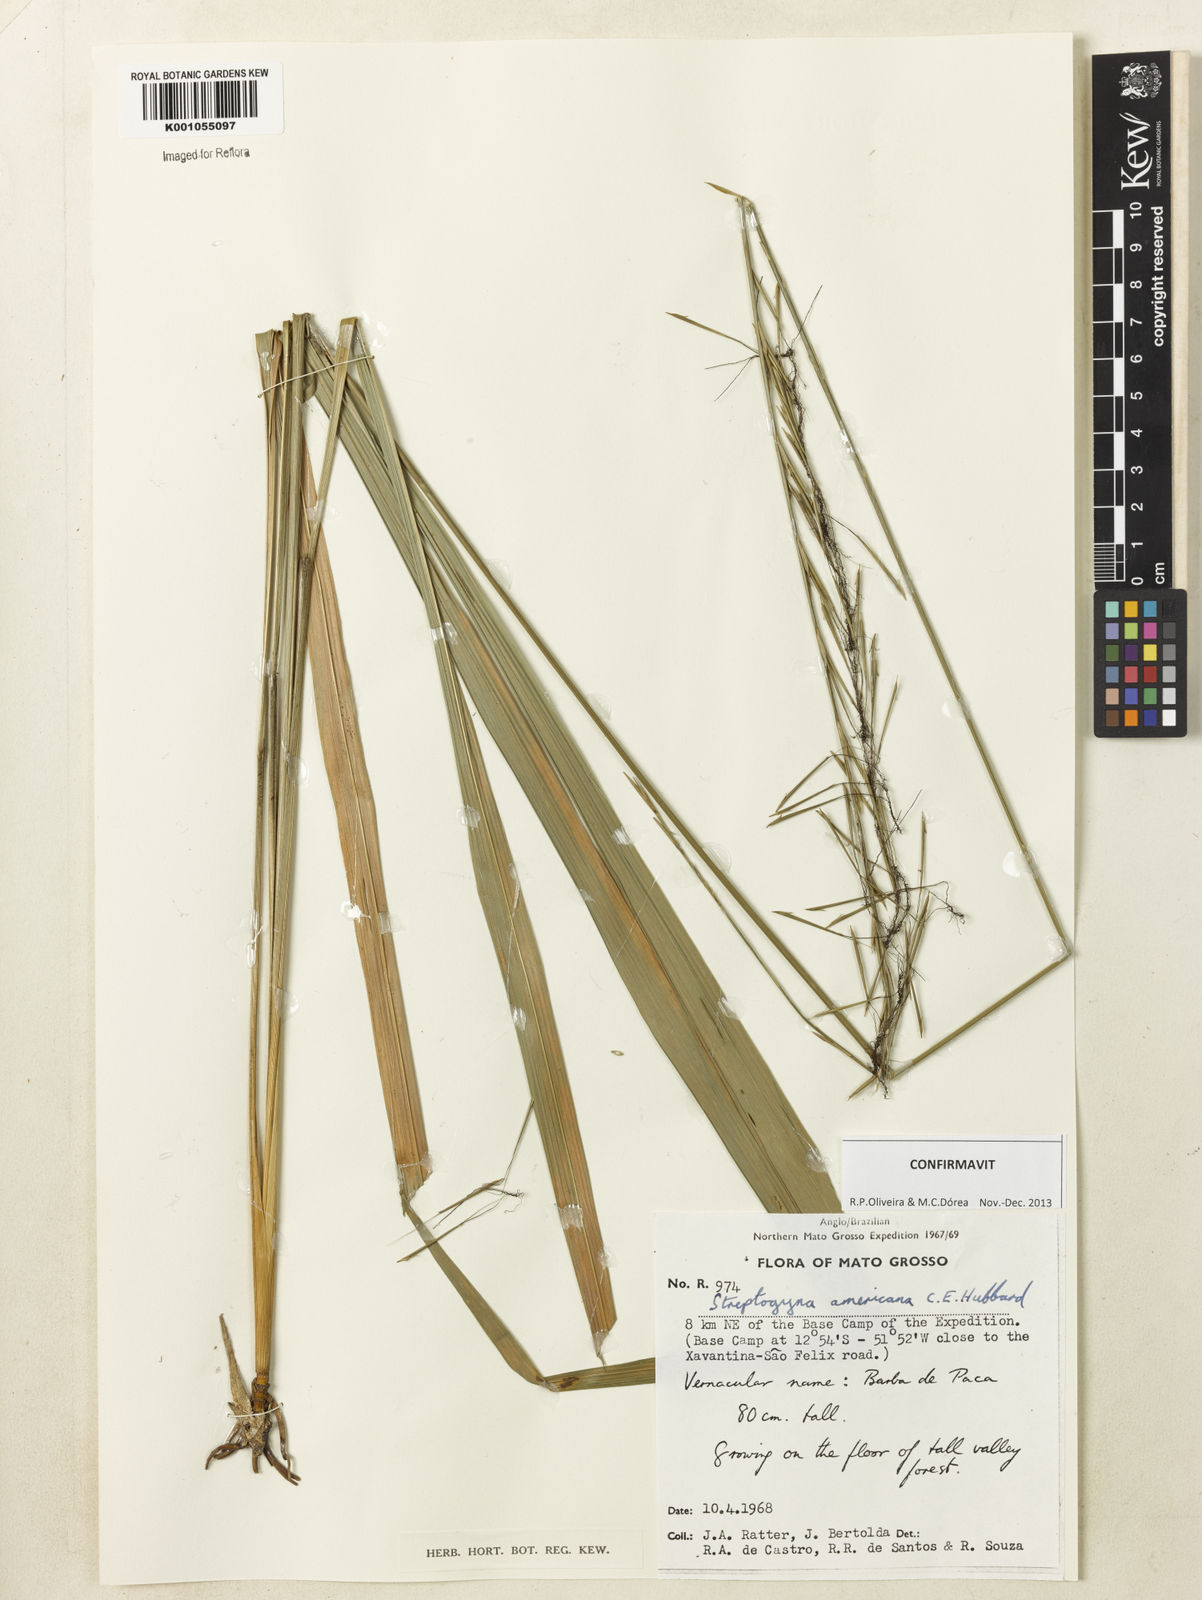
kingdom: Plantae
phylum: Tracheophyta
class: Liliopsida
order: Poales
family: Poaceae
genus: Streptogyna
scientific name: Streptogyna americana
